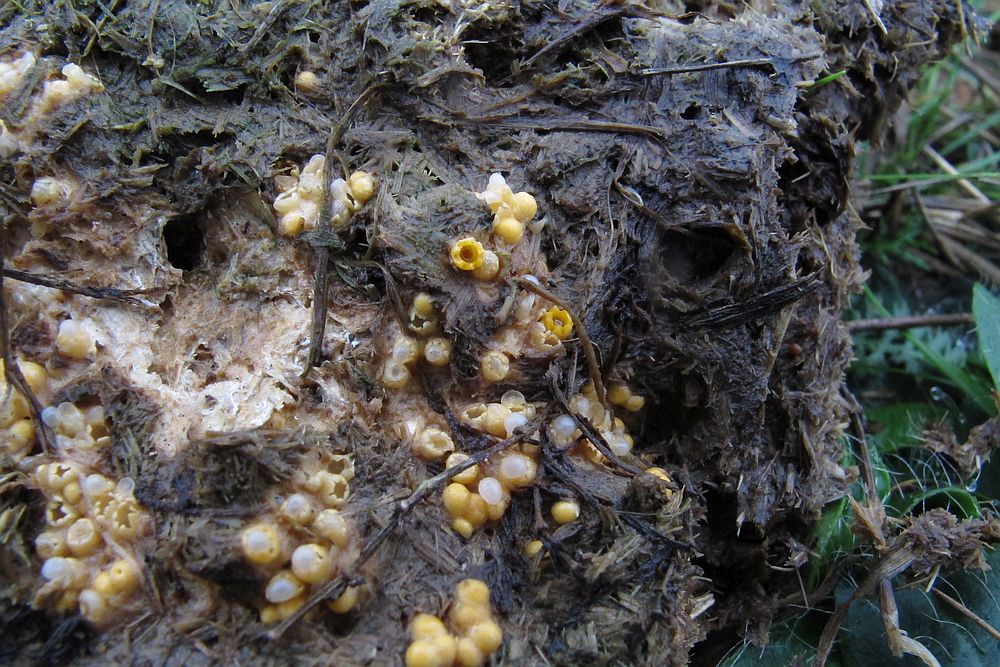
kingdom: Fungi
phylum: Basidiomycota
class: Agaricomycetes
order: Geastrales
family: Geastraceae
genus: Sphaerobolus
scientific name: Sphaerobolus stellatus
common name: bombekaster
